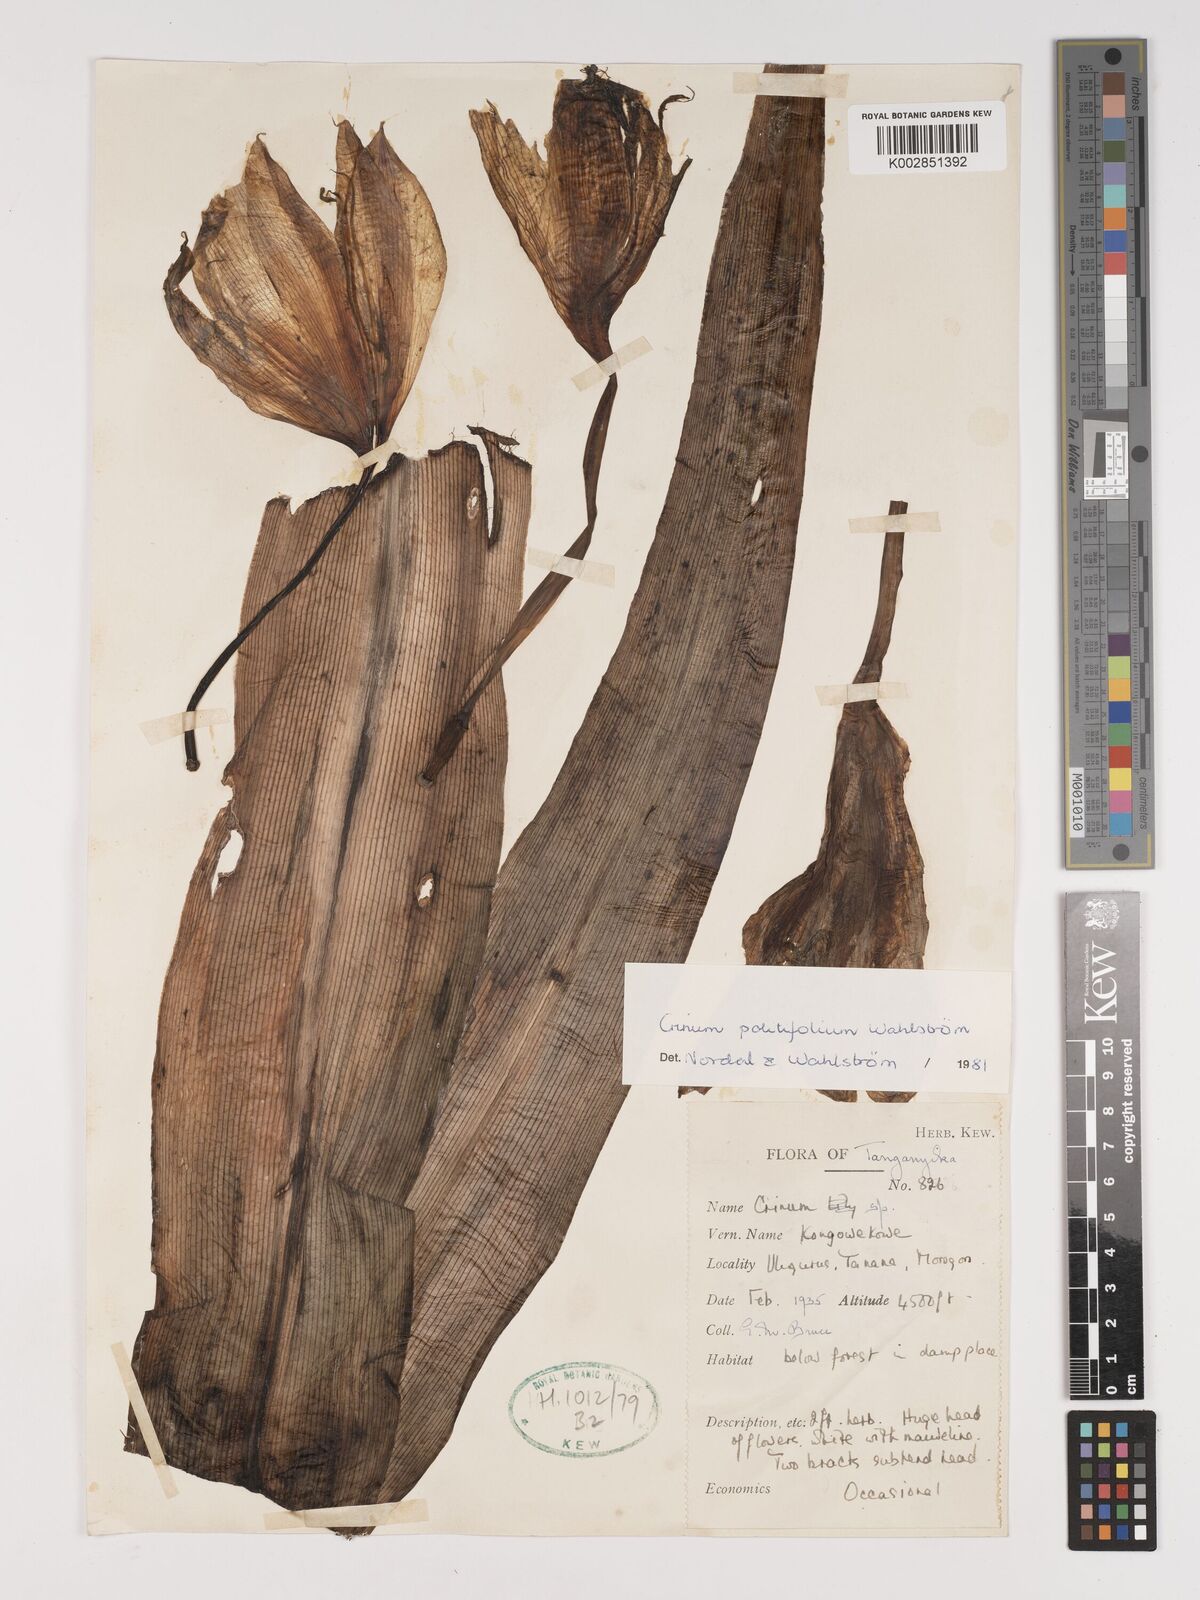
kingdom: Plantae
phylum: Tracheophyta
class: Liliopsida
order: Asparagales
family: Amaryllidaceae
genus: Crinum
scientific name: Crinum politifolium
